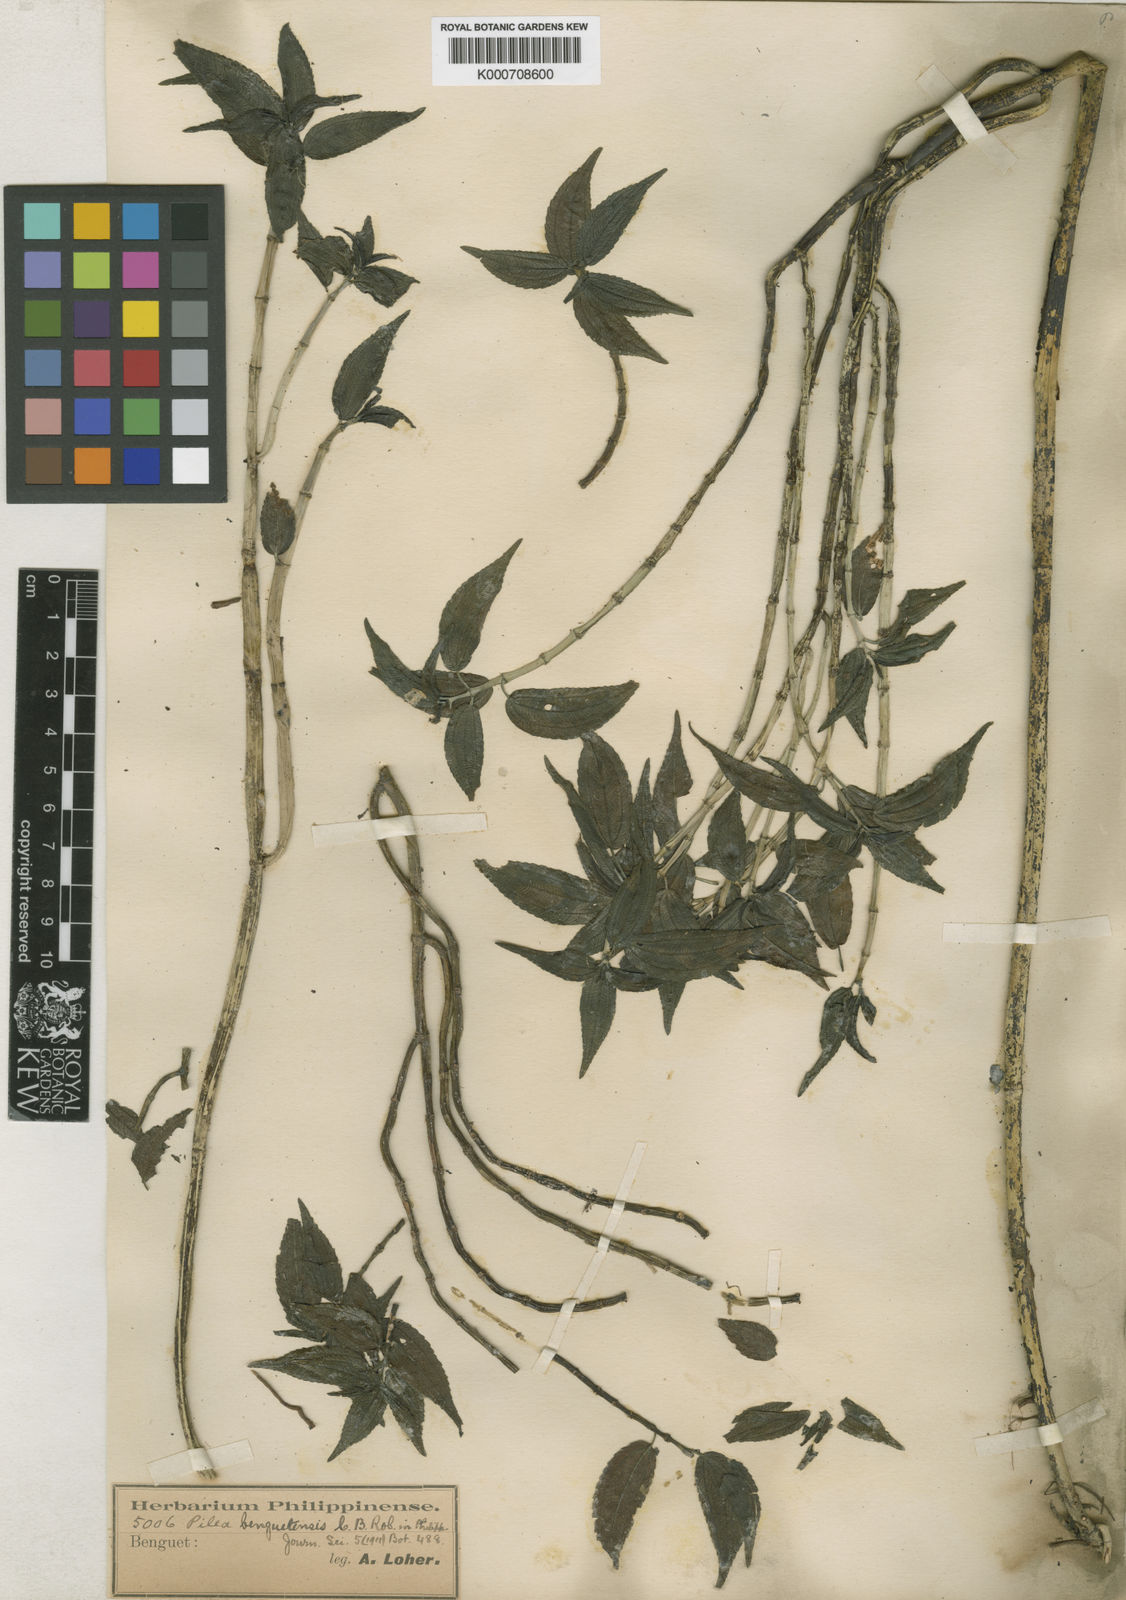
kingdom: Plantae
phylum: Tracheophyta
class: Magnoliopsida
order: Rosales
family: Urticaceae
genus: Pilea
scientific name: Pilea benguetensis
